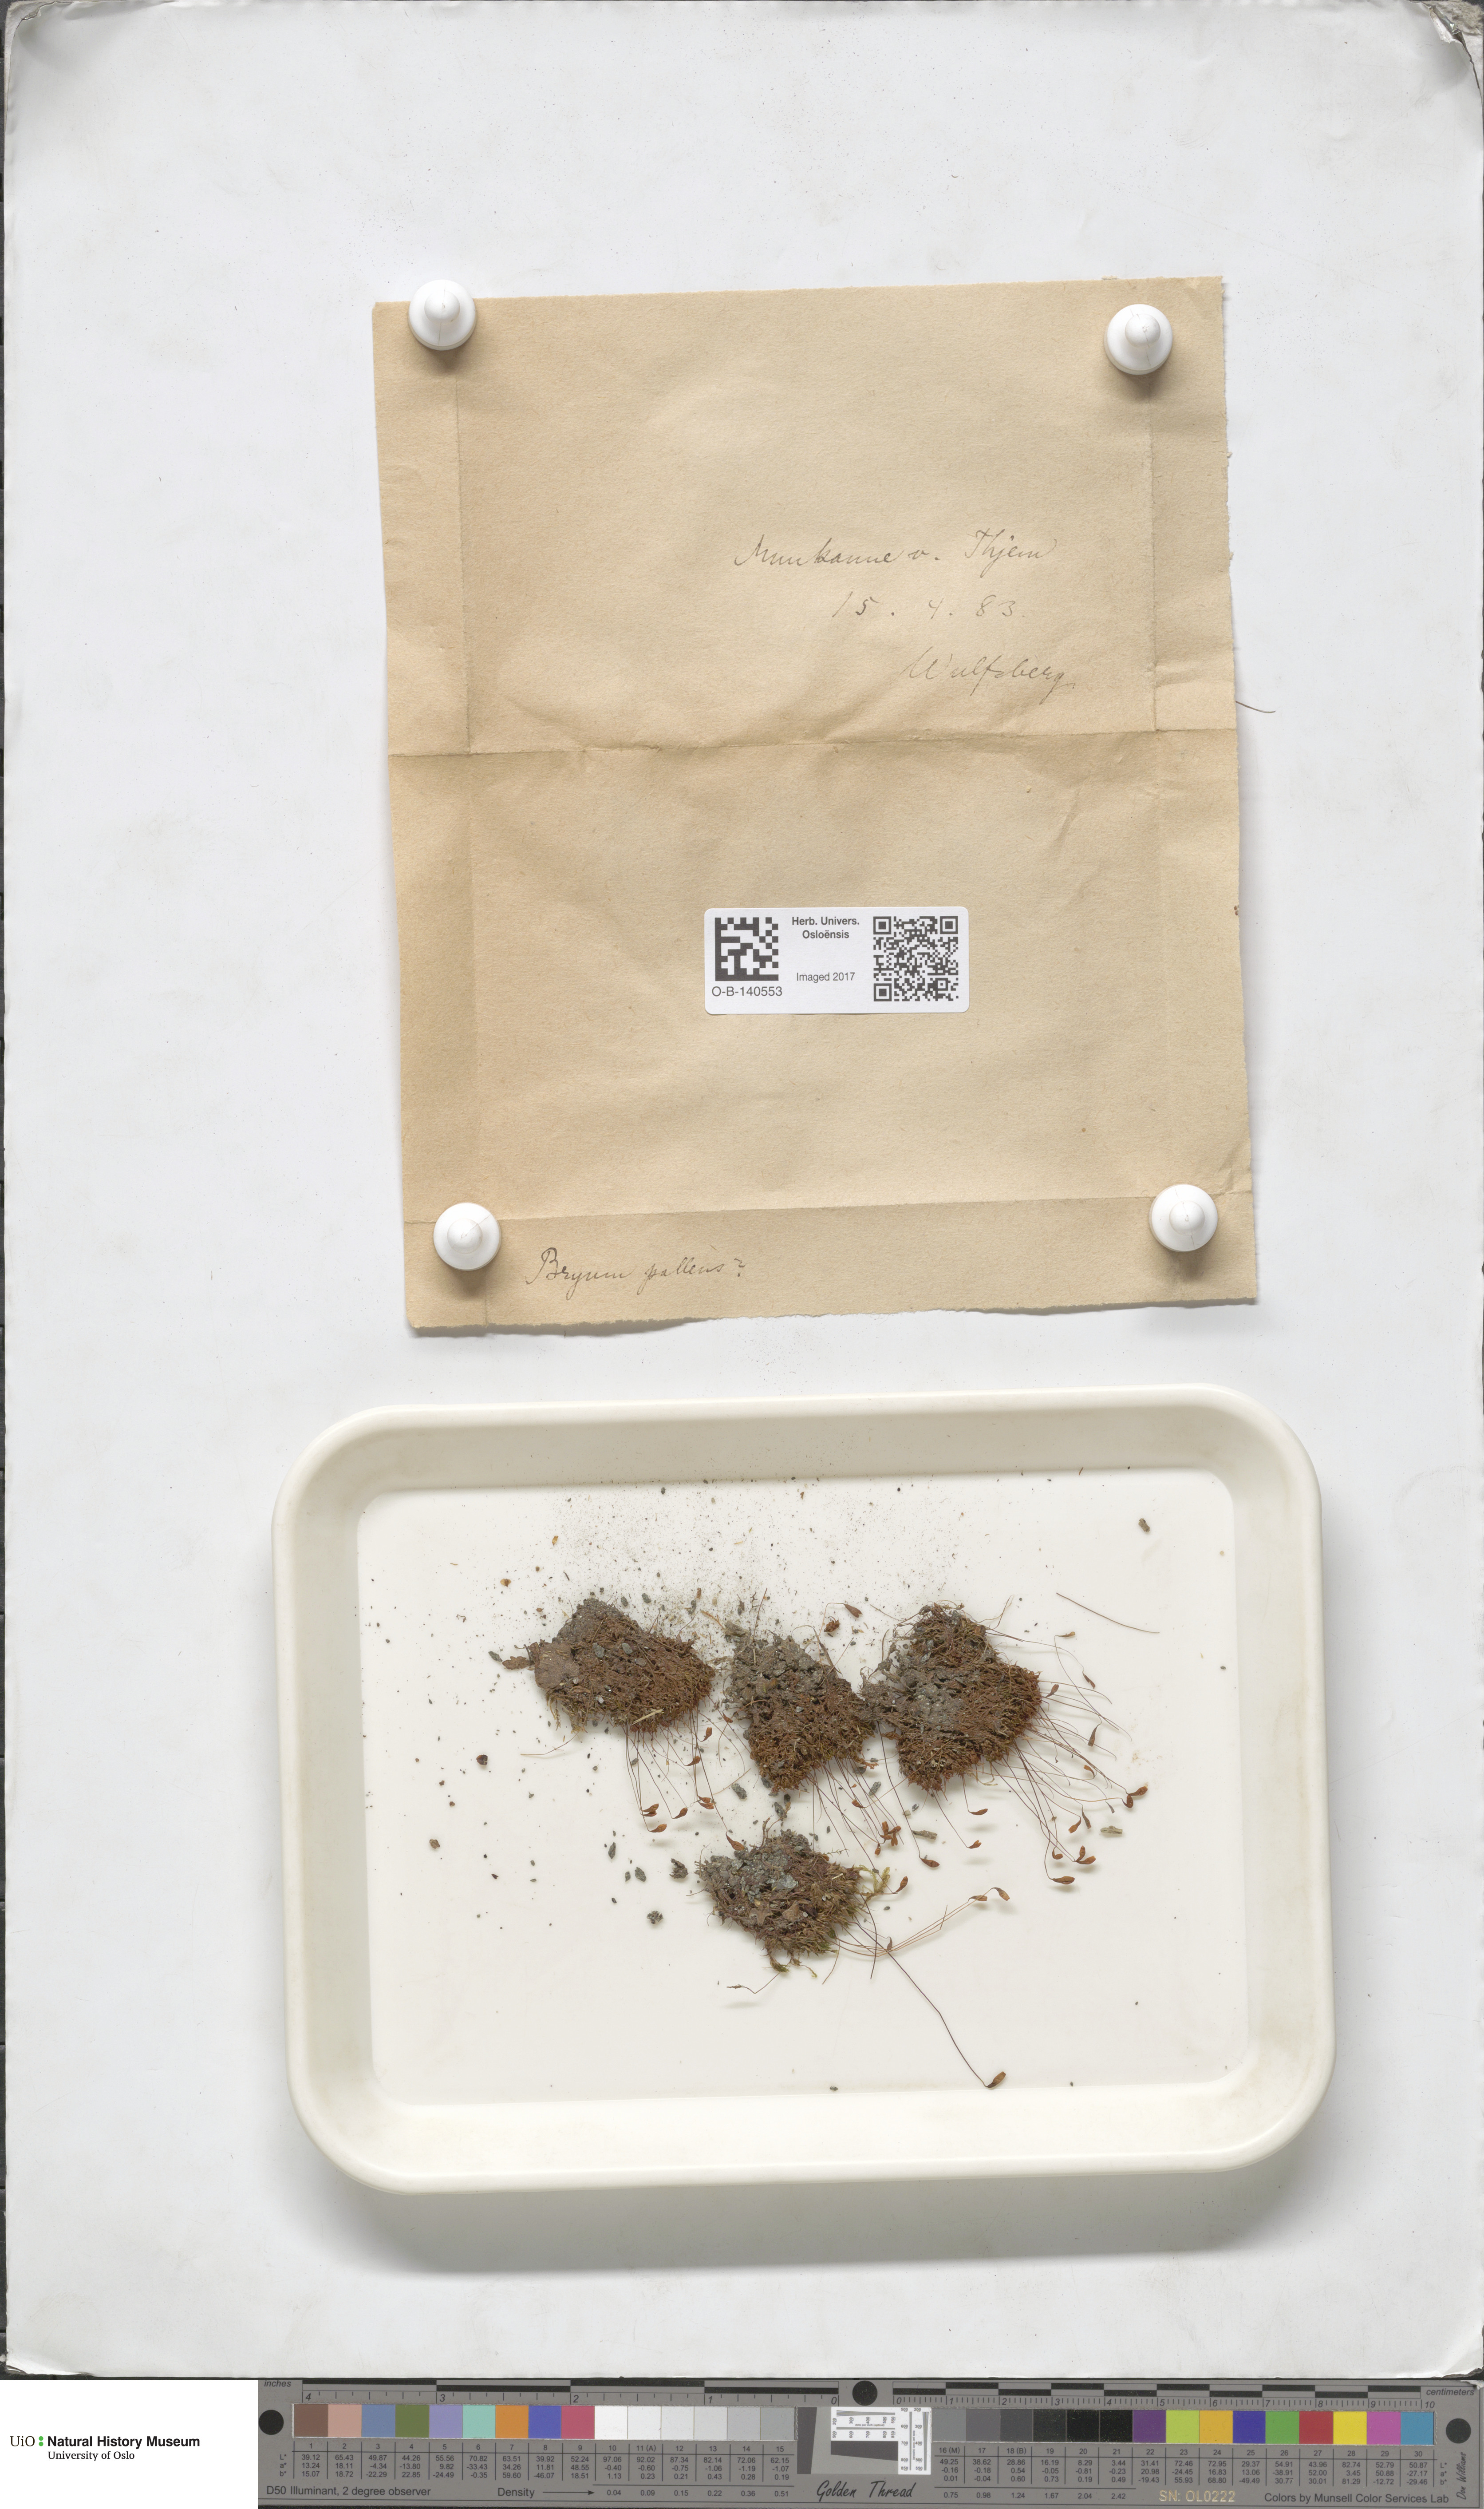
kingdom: Plantae
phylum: Bryophyta
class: Bryopsida
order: Bryales
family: Bryaceae
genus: Ptychostomum
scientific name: Ptychostomum pallens
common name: Pale thread-moss
